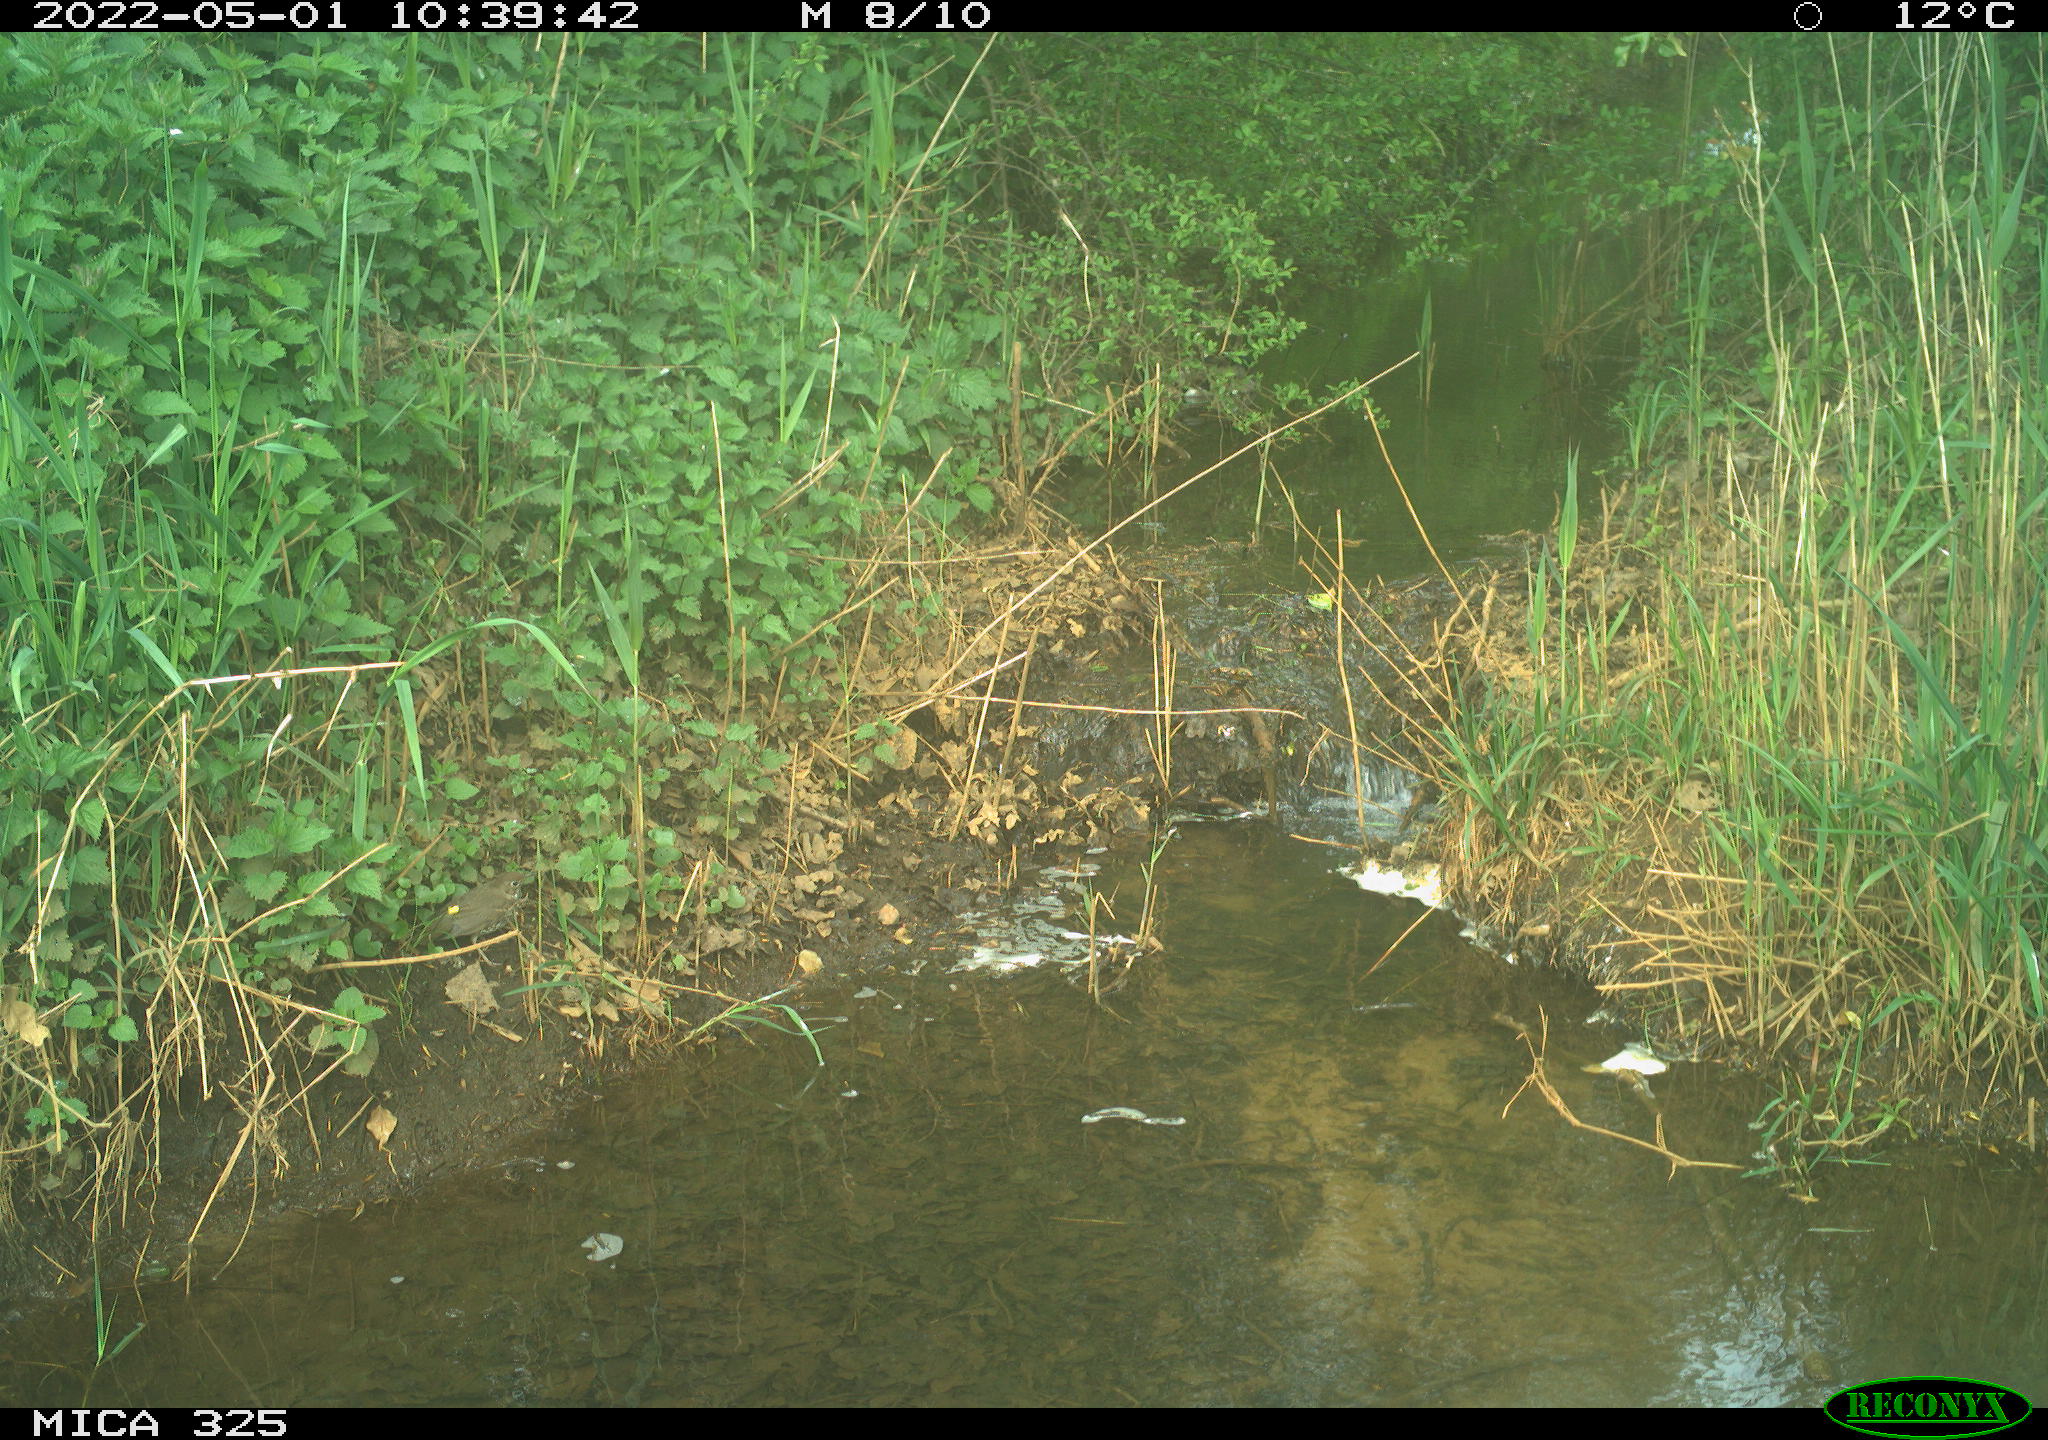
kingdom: Animalia
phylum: Chordata
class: Aves
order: Passeriformes
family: Turdidae
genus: Turdus
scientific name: Turdus philomelos
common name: Song thrush
